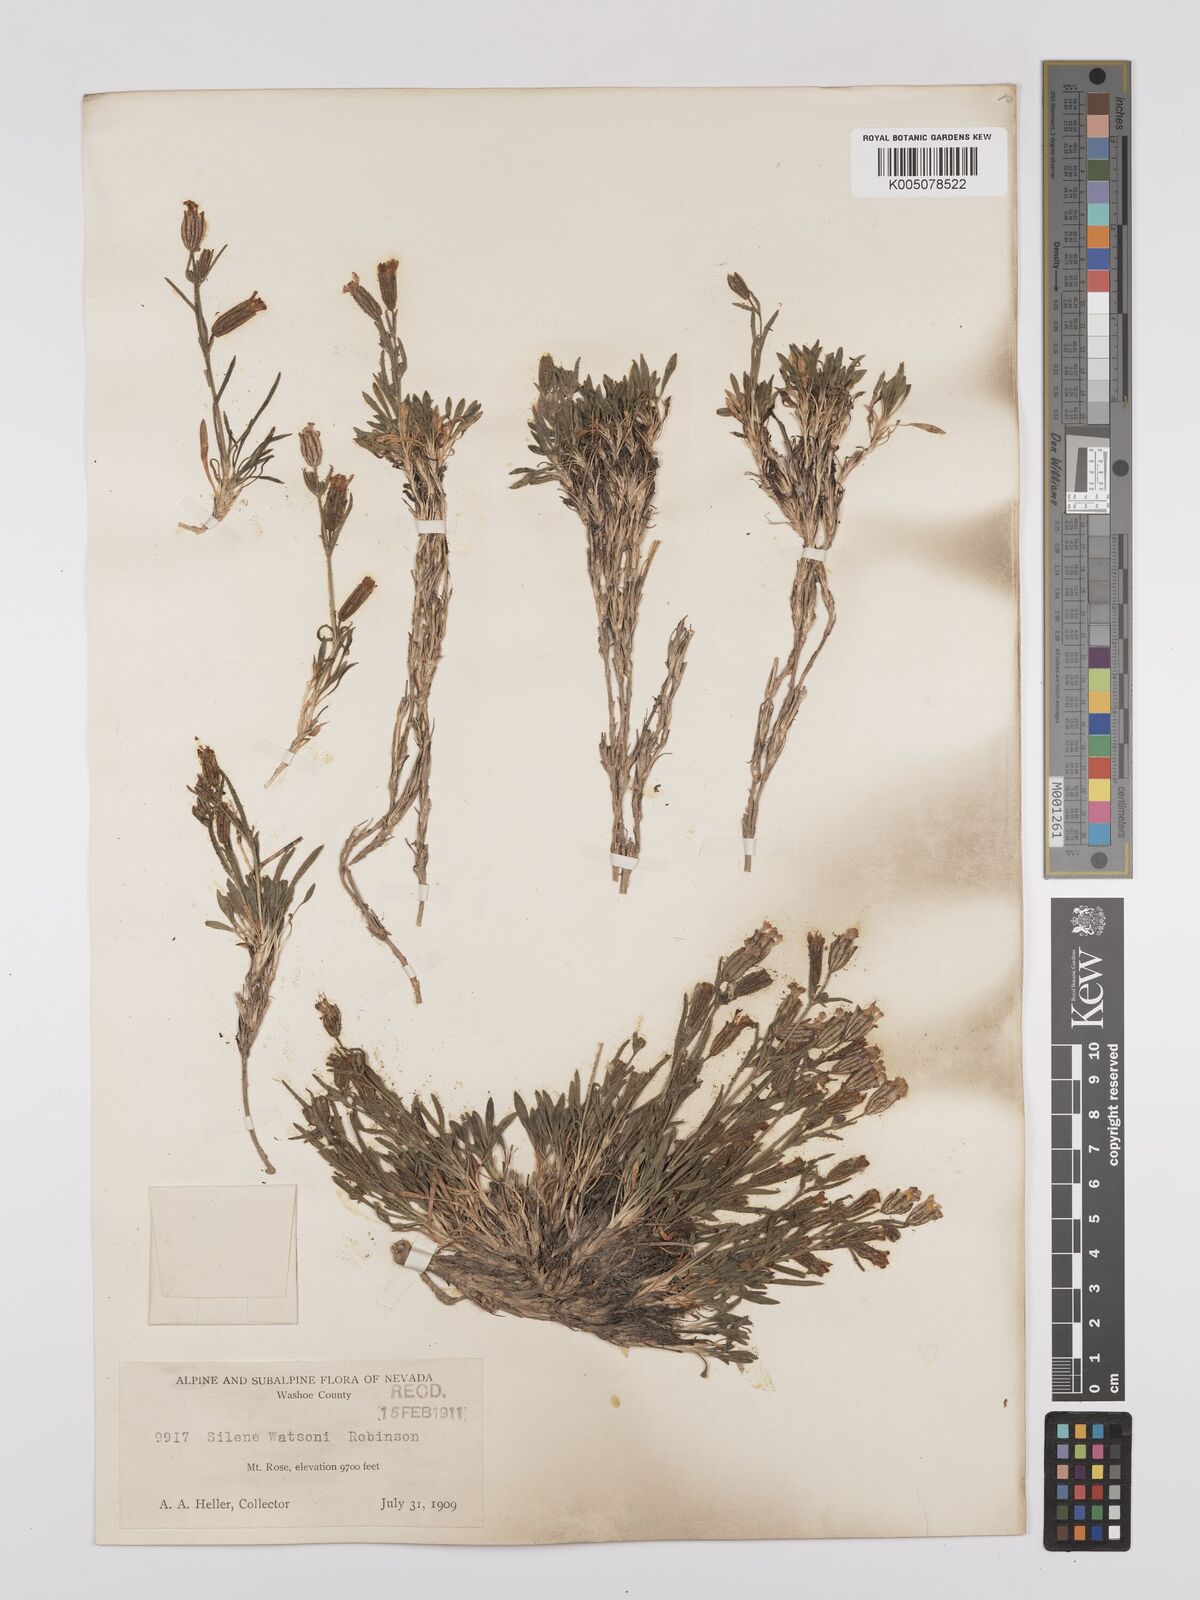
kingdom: Plantae
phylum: Tracheophyta
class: Magnoliopsida
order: Caryophyllales
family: Caryophyllaceae
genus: Silene
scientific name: Silene sargentii
